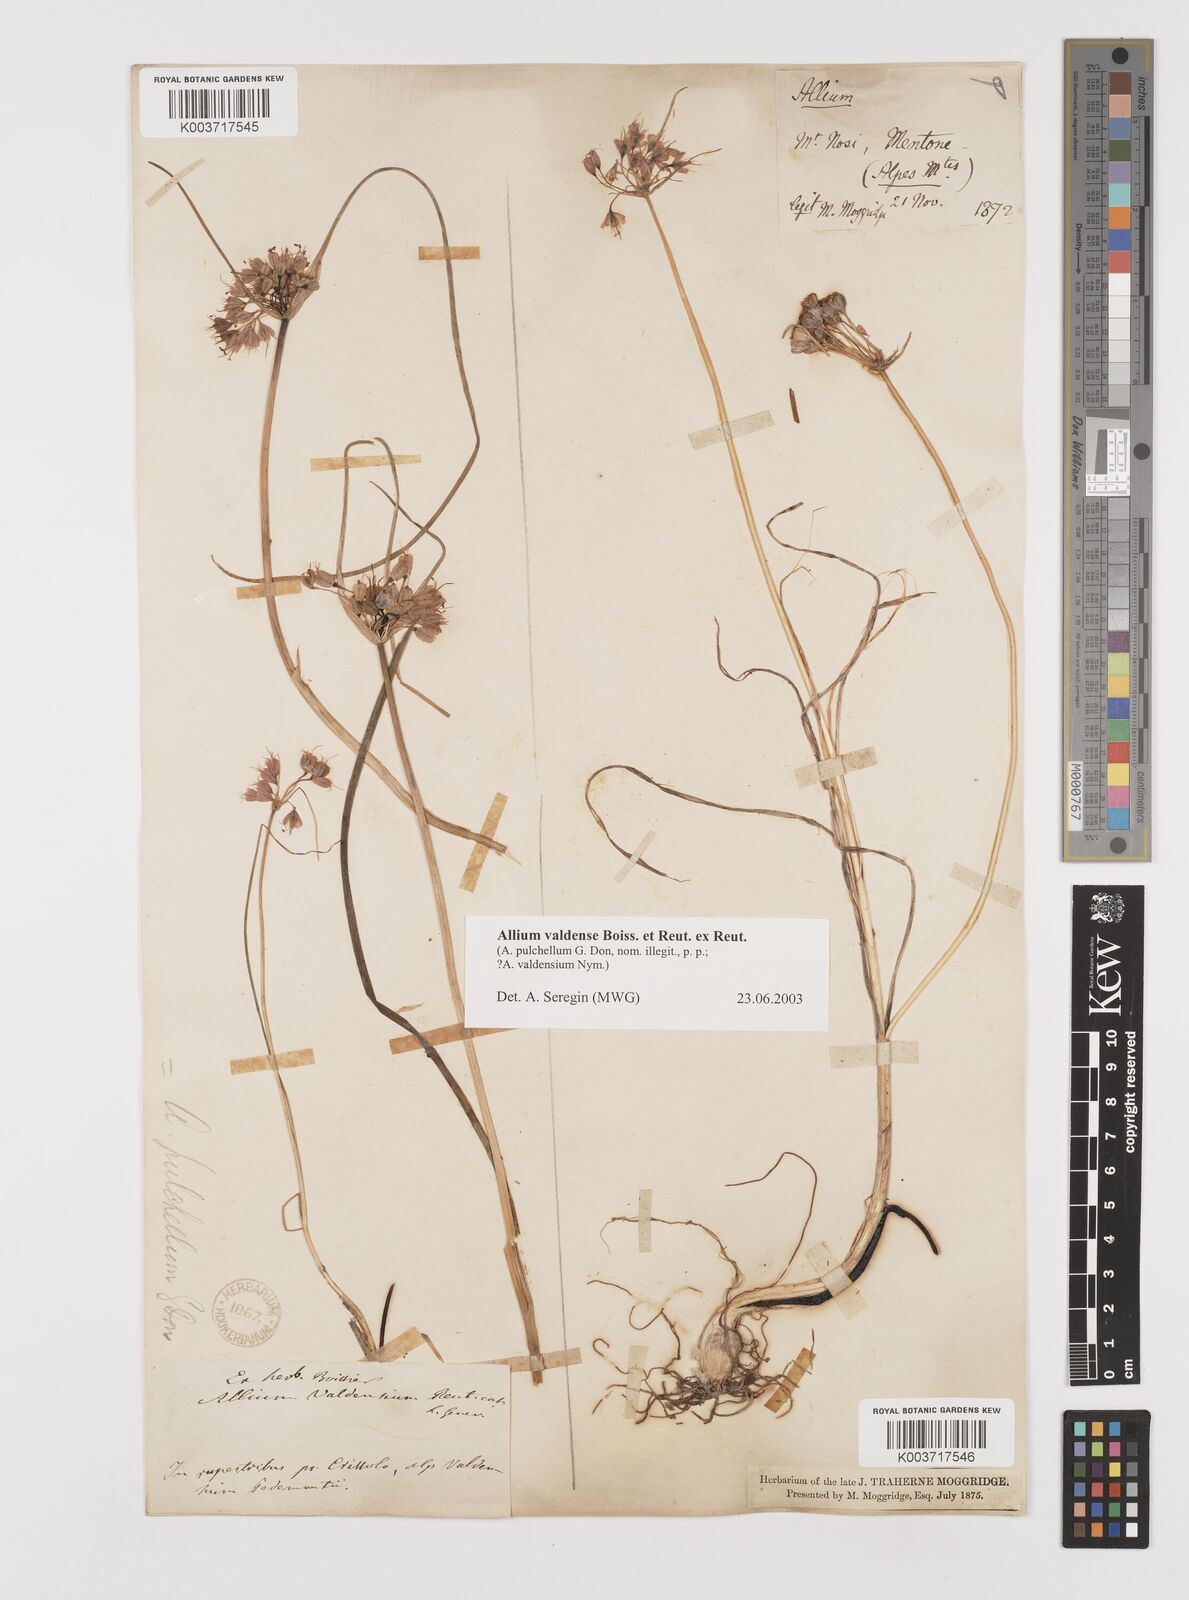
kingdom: Plantae
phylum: Tracheophyta
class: Liliopsida
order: Asparagales
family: Amaryllidaceae
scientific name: Amaryllidaceae
